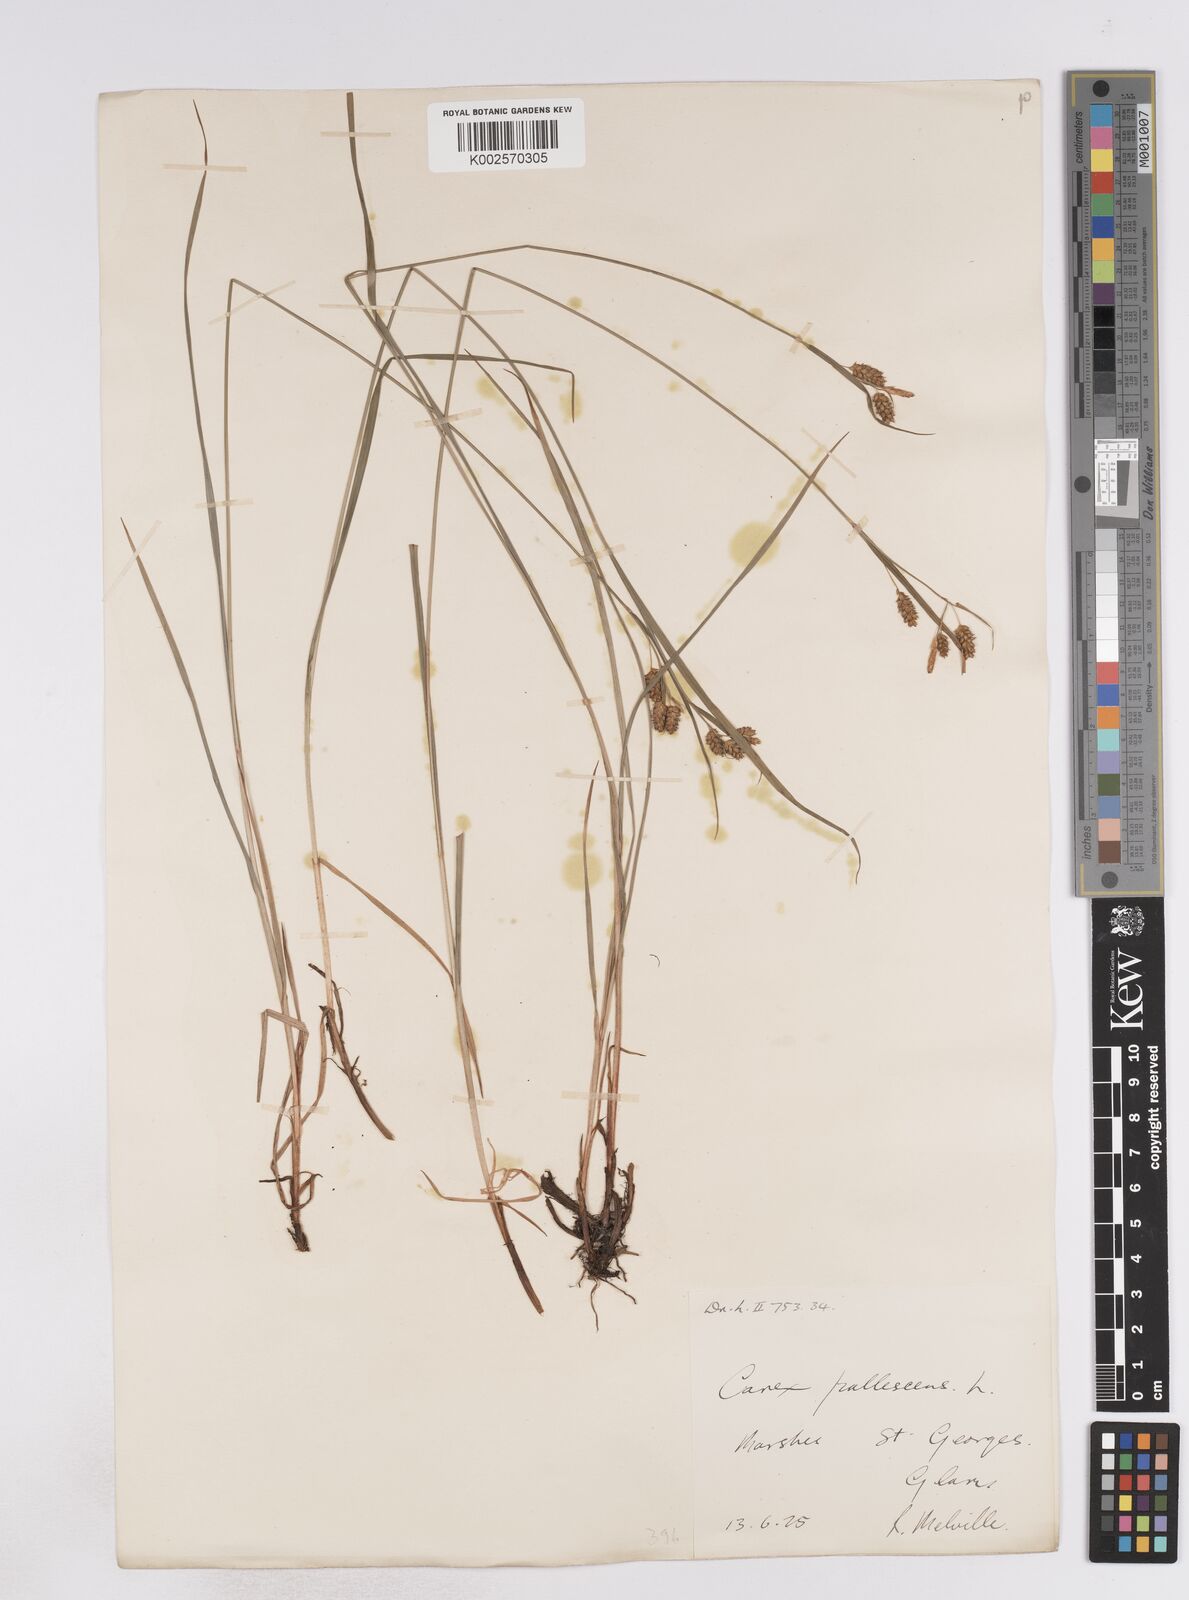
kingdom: Plantae
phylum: Tracheophyta
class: Liliopsida
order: Poales
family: Cyperaceae
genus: Carex
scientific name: Carex pallescens
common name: Pale sedge
